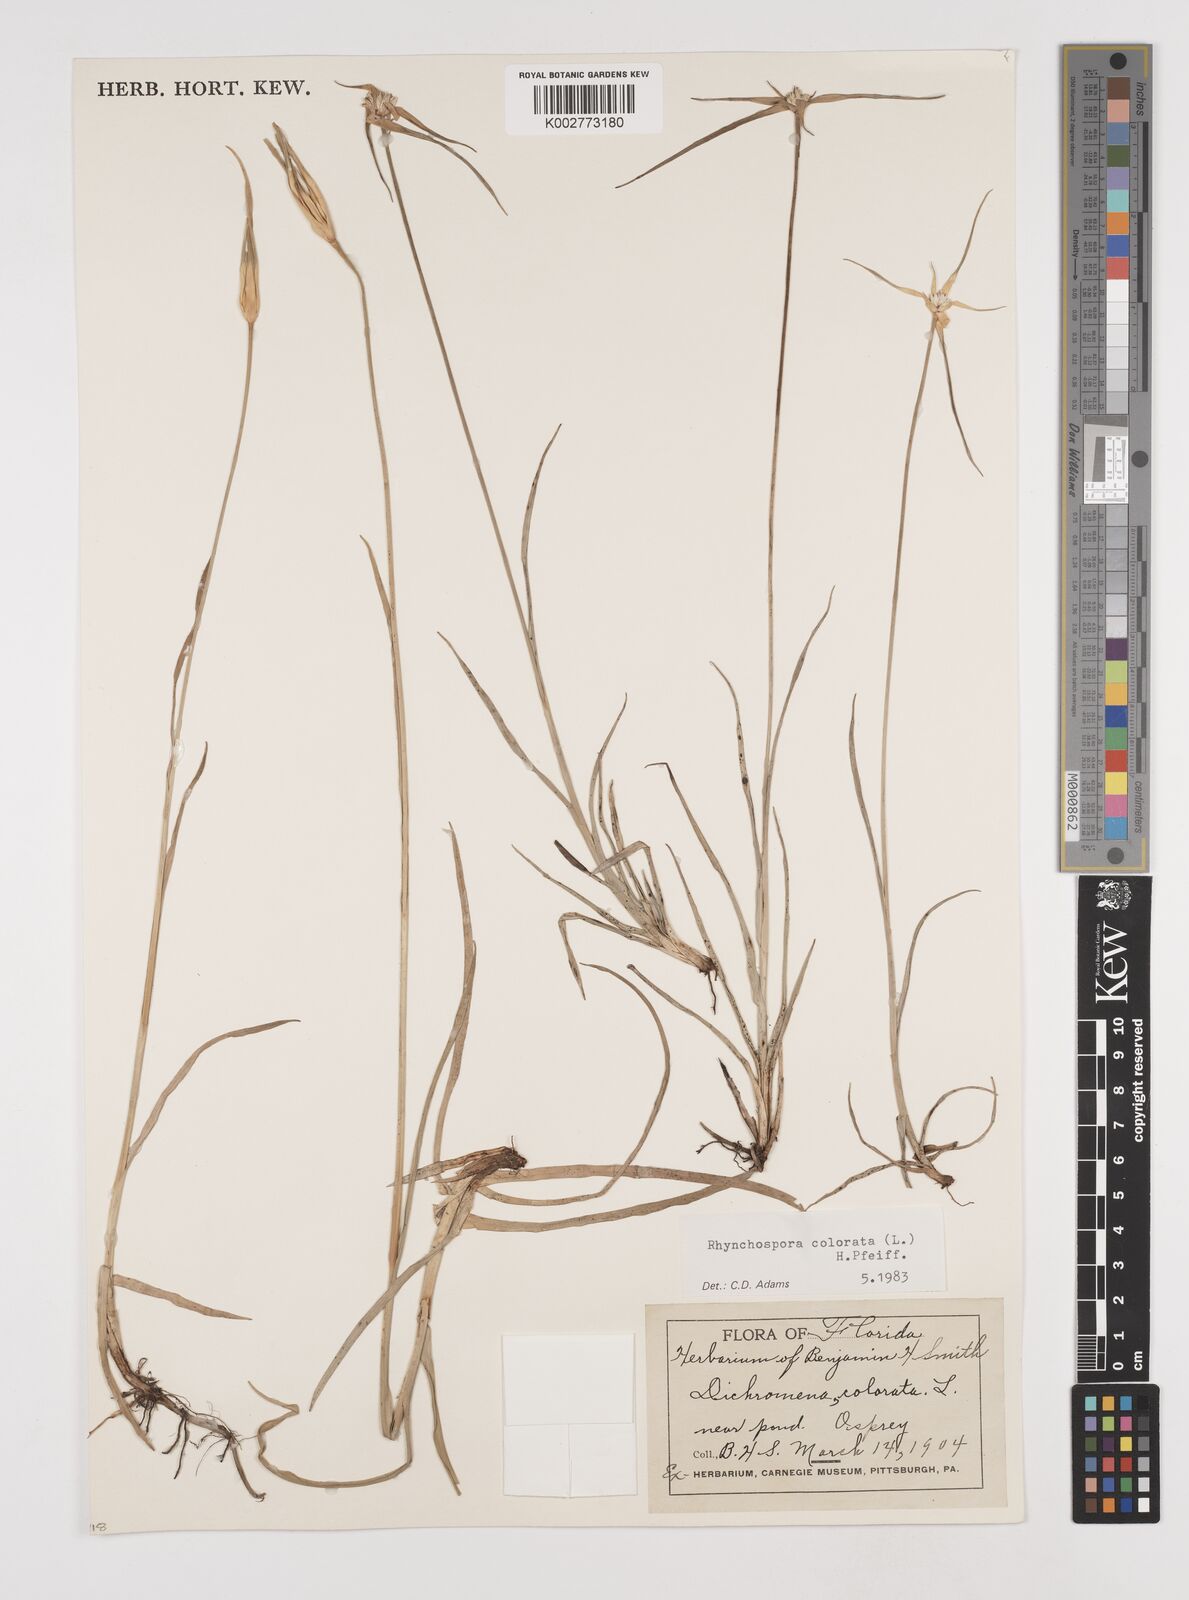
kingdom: Plantae
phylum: Tracheophyta
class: Liliopsida
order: Poales
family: Cyperaceae
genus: Rhynchospora
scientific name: Rhynchospora colorata
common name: Star sedge
